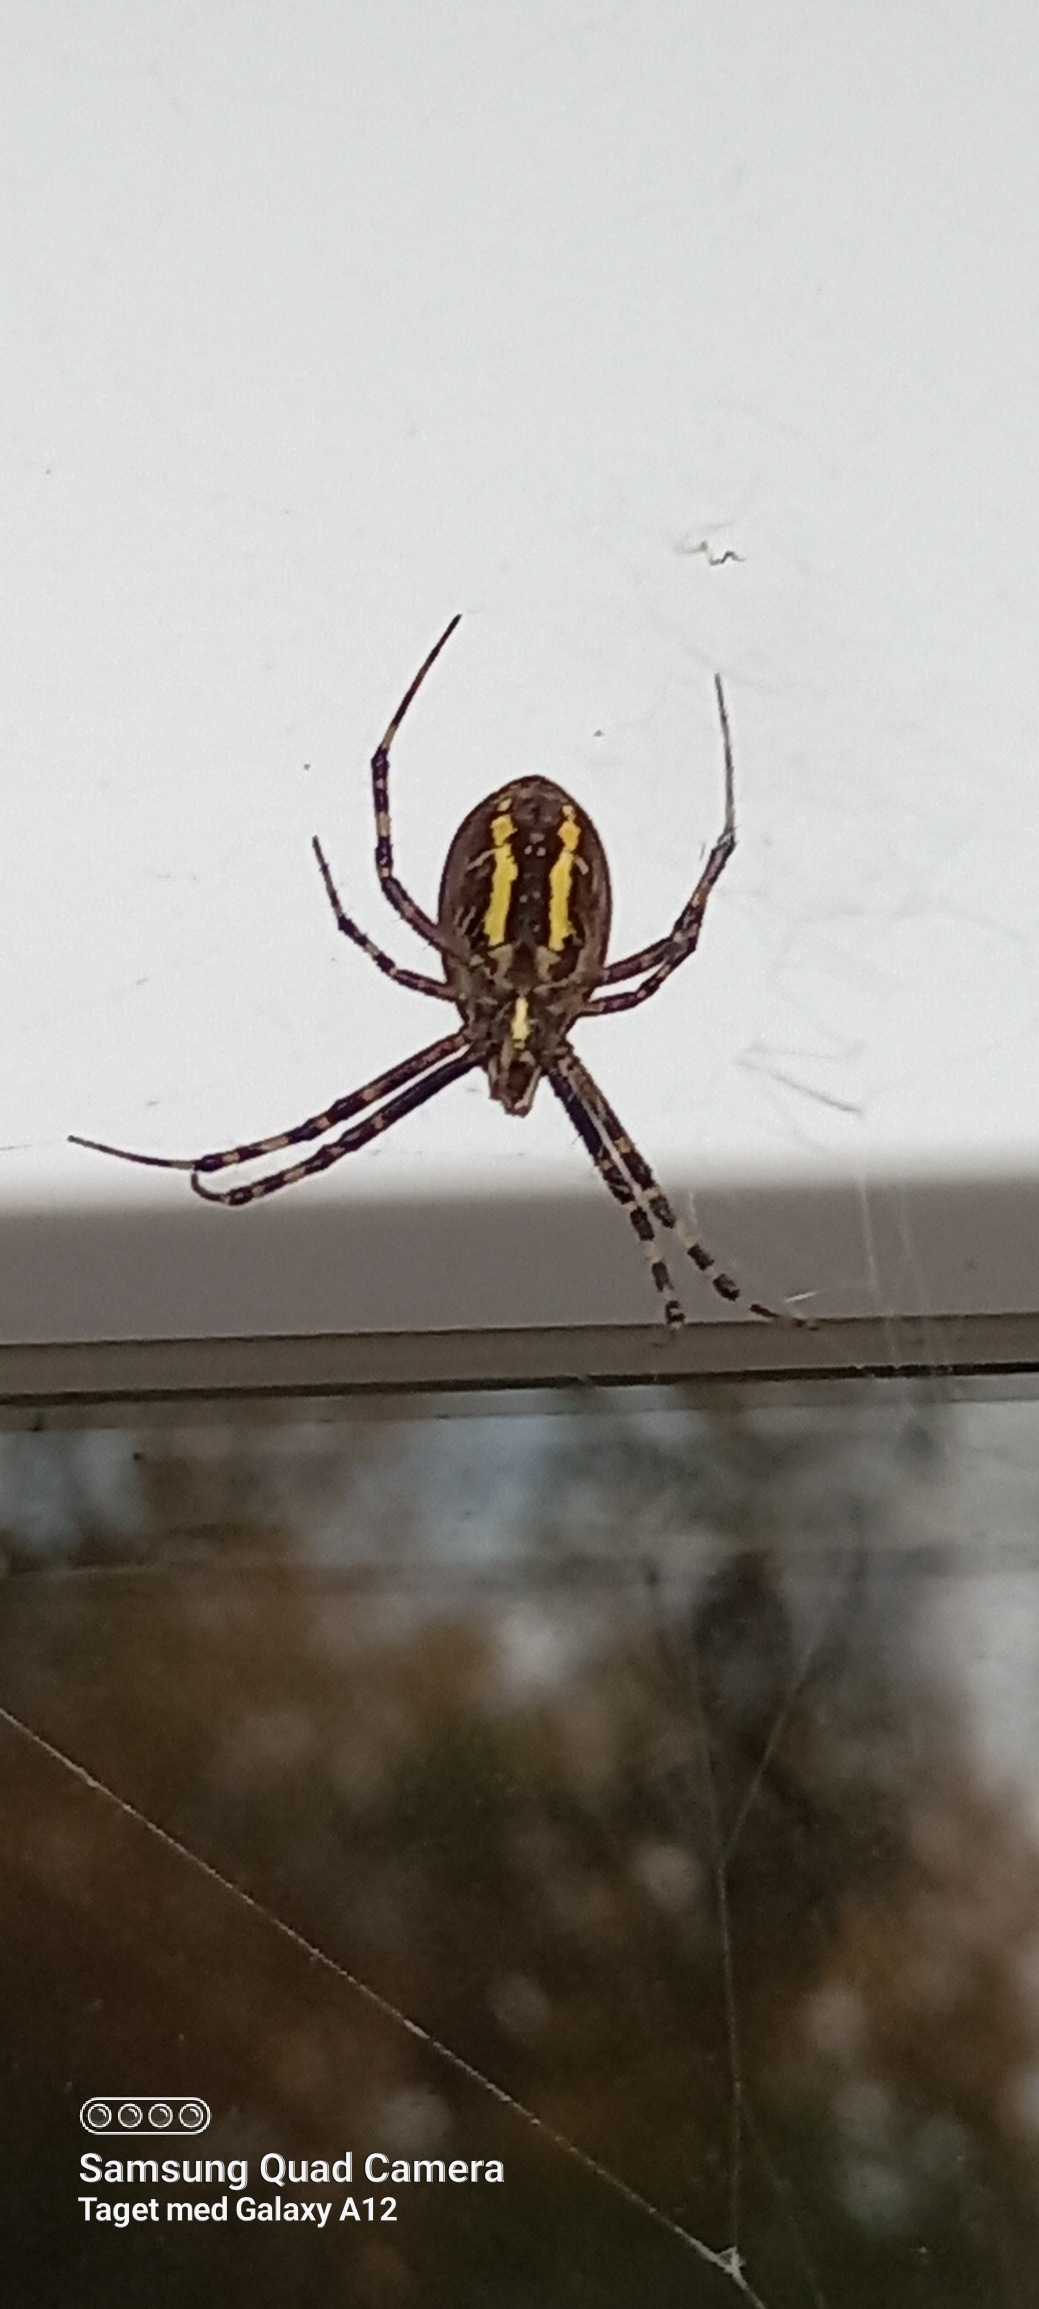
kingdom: Animalia
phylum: Arthropoda
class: Arachnida
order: Araneae
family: Araneidae
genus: Argiope
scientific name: Argiope bruennichi
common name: Hvepseedderkop
